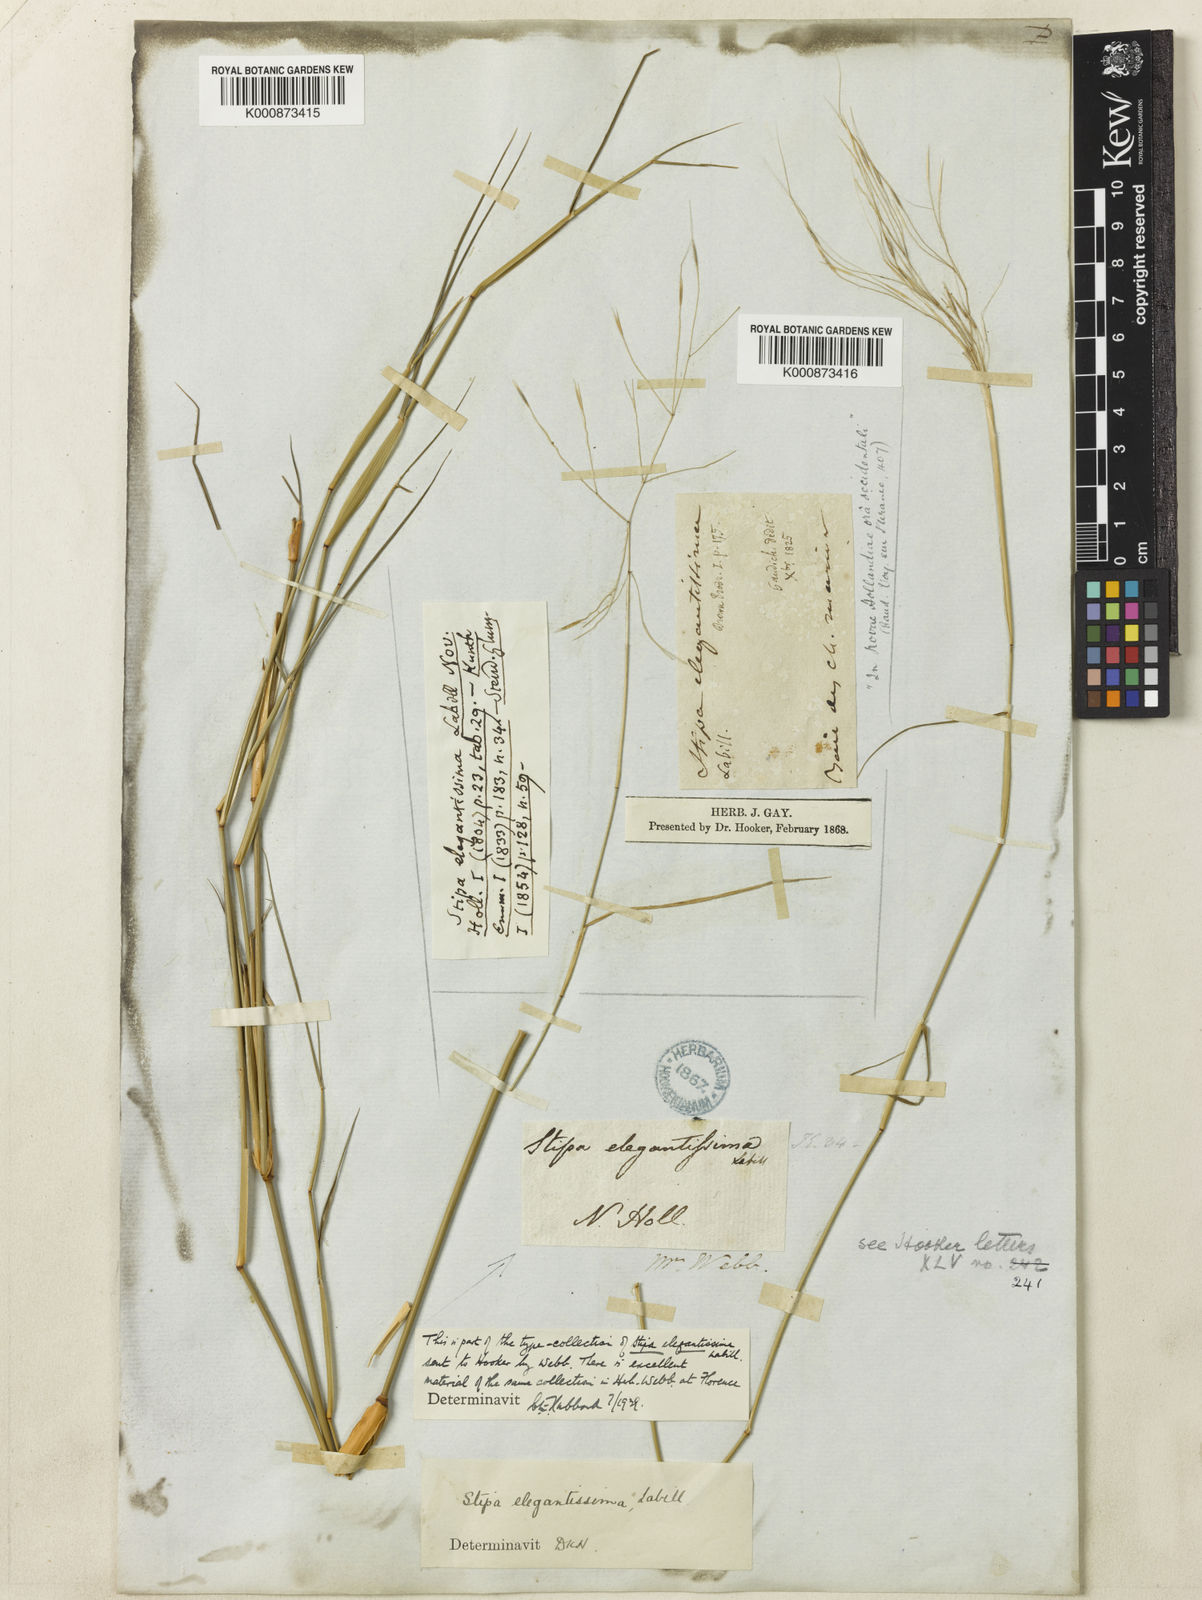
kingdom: Plantae
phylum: Tracheophyta
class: Liliopsida
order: Poales
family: Poaceae
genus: Austrostipa
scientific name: Austrostipa elegantissima
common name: Feather spear grass
